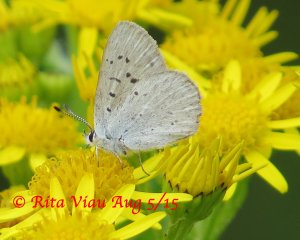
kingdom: Animalia
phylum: Arthropoda
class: Insecta
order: Lepidoptera
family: Sesiidae
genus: Sesia
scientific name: Sesia Lycaena epixanthe
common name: Bog Copper
